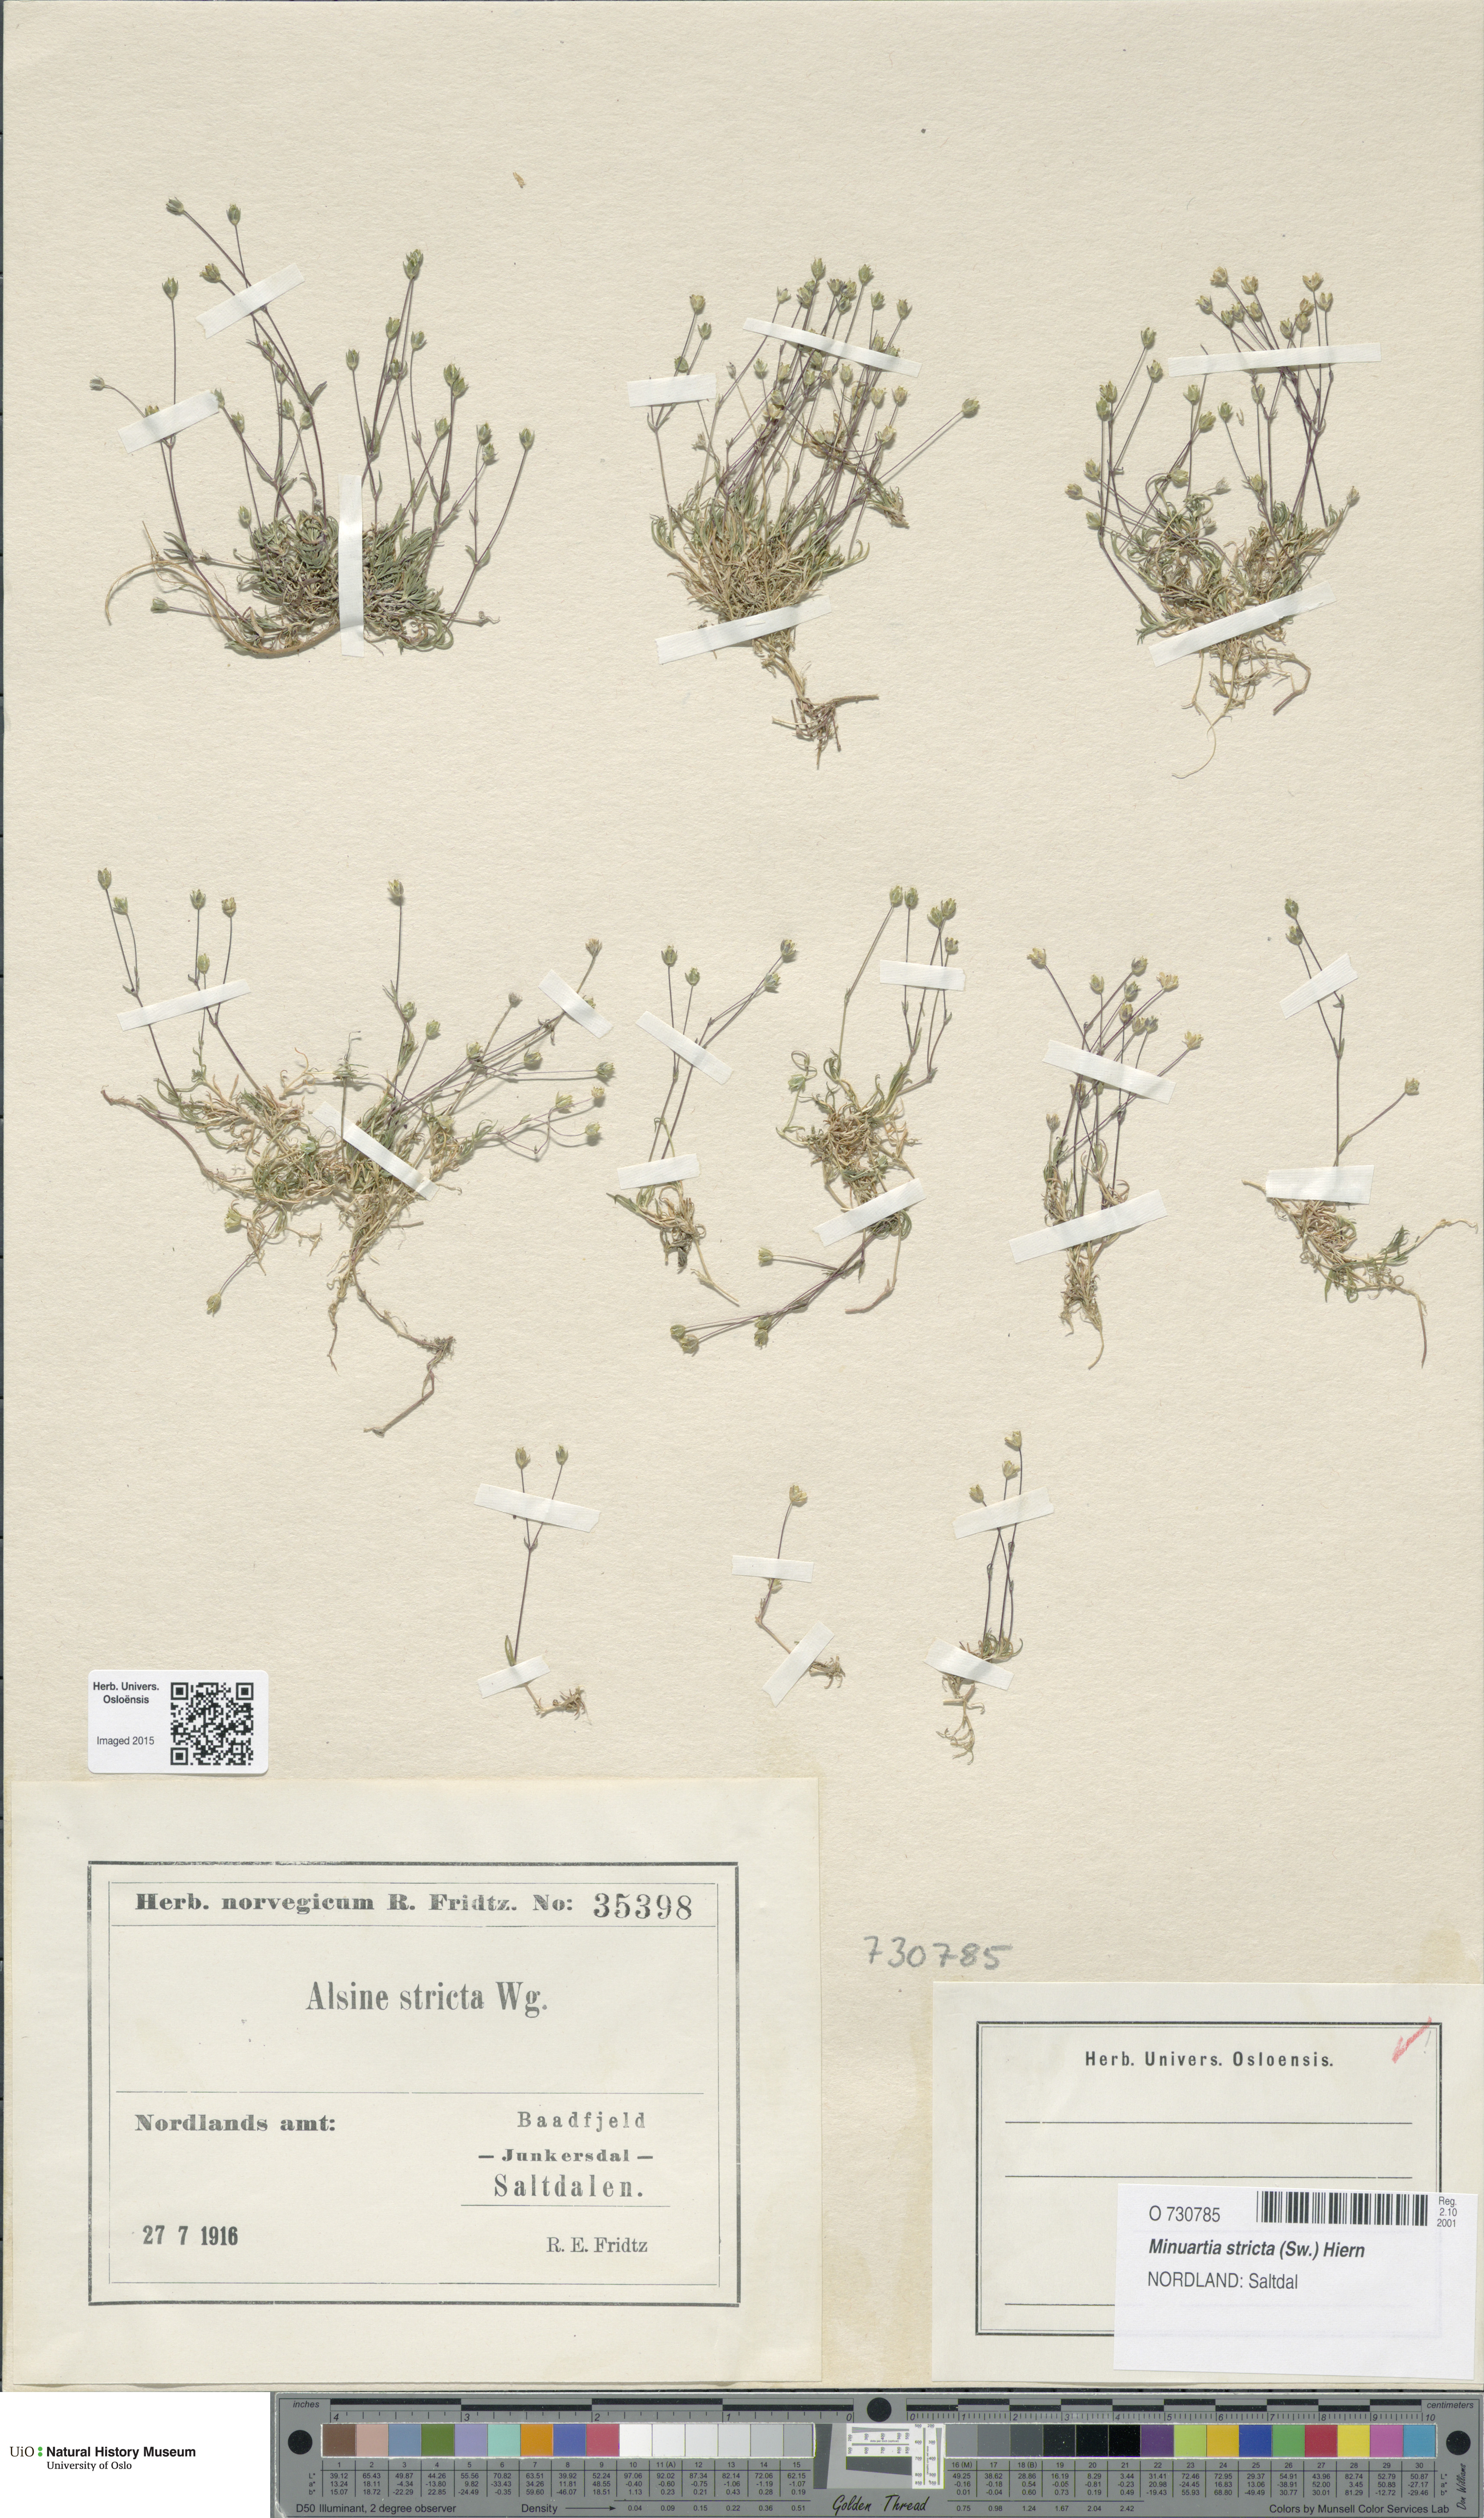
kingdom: Plantae
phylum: Tracheophyta
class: Magnoliopsida
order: Caryophyllales
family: Caryophyllaceae
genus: Sabulina
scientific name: Sabulina stricta
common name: Bog sandwort
